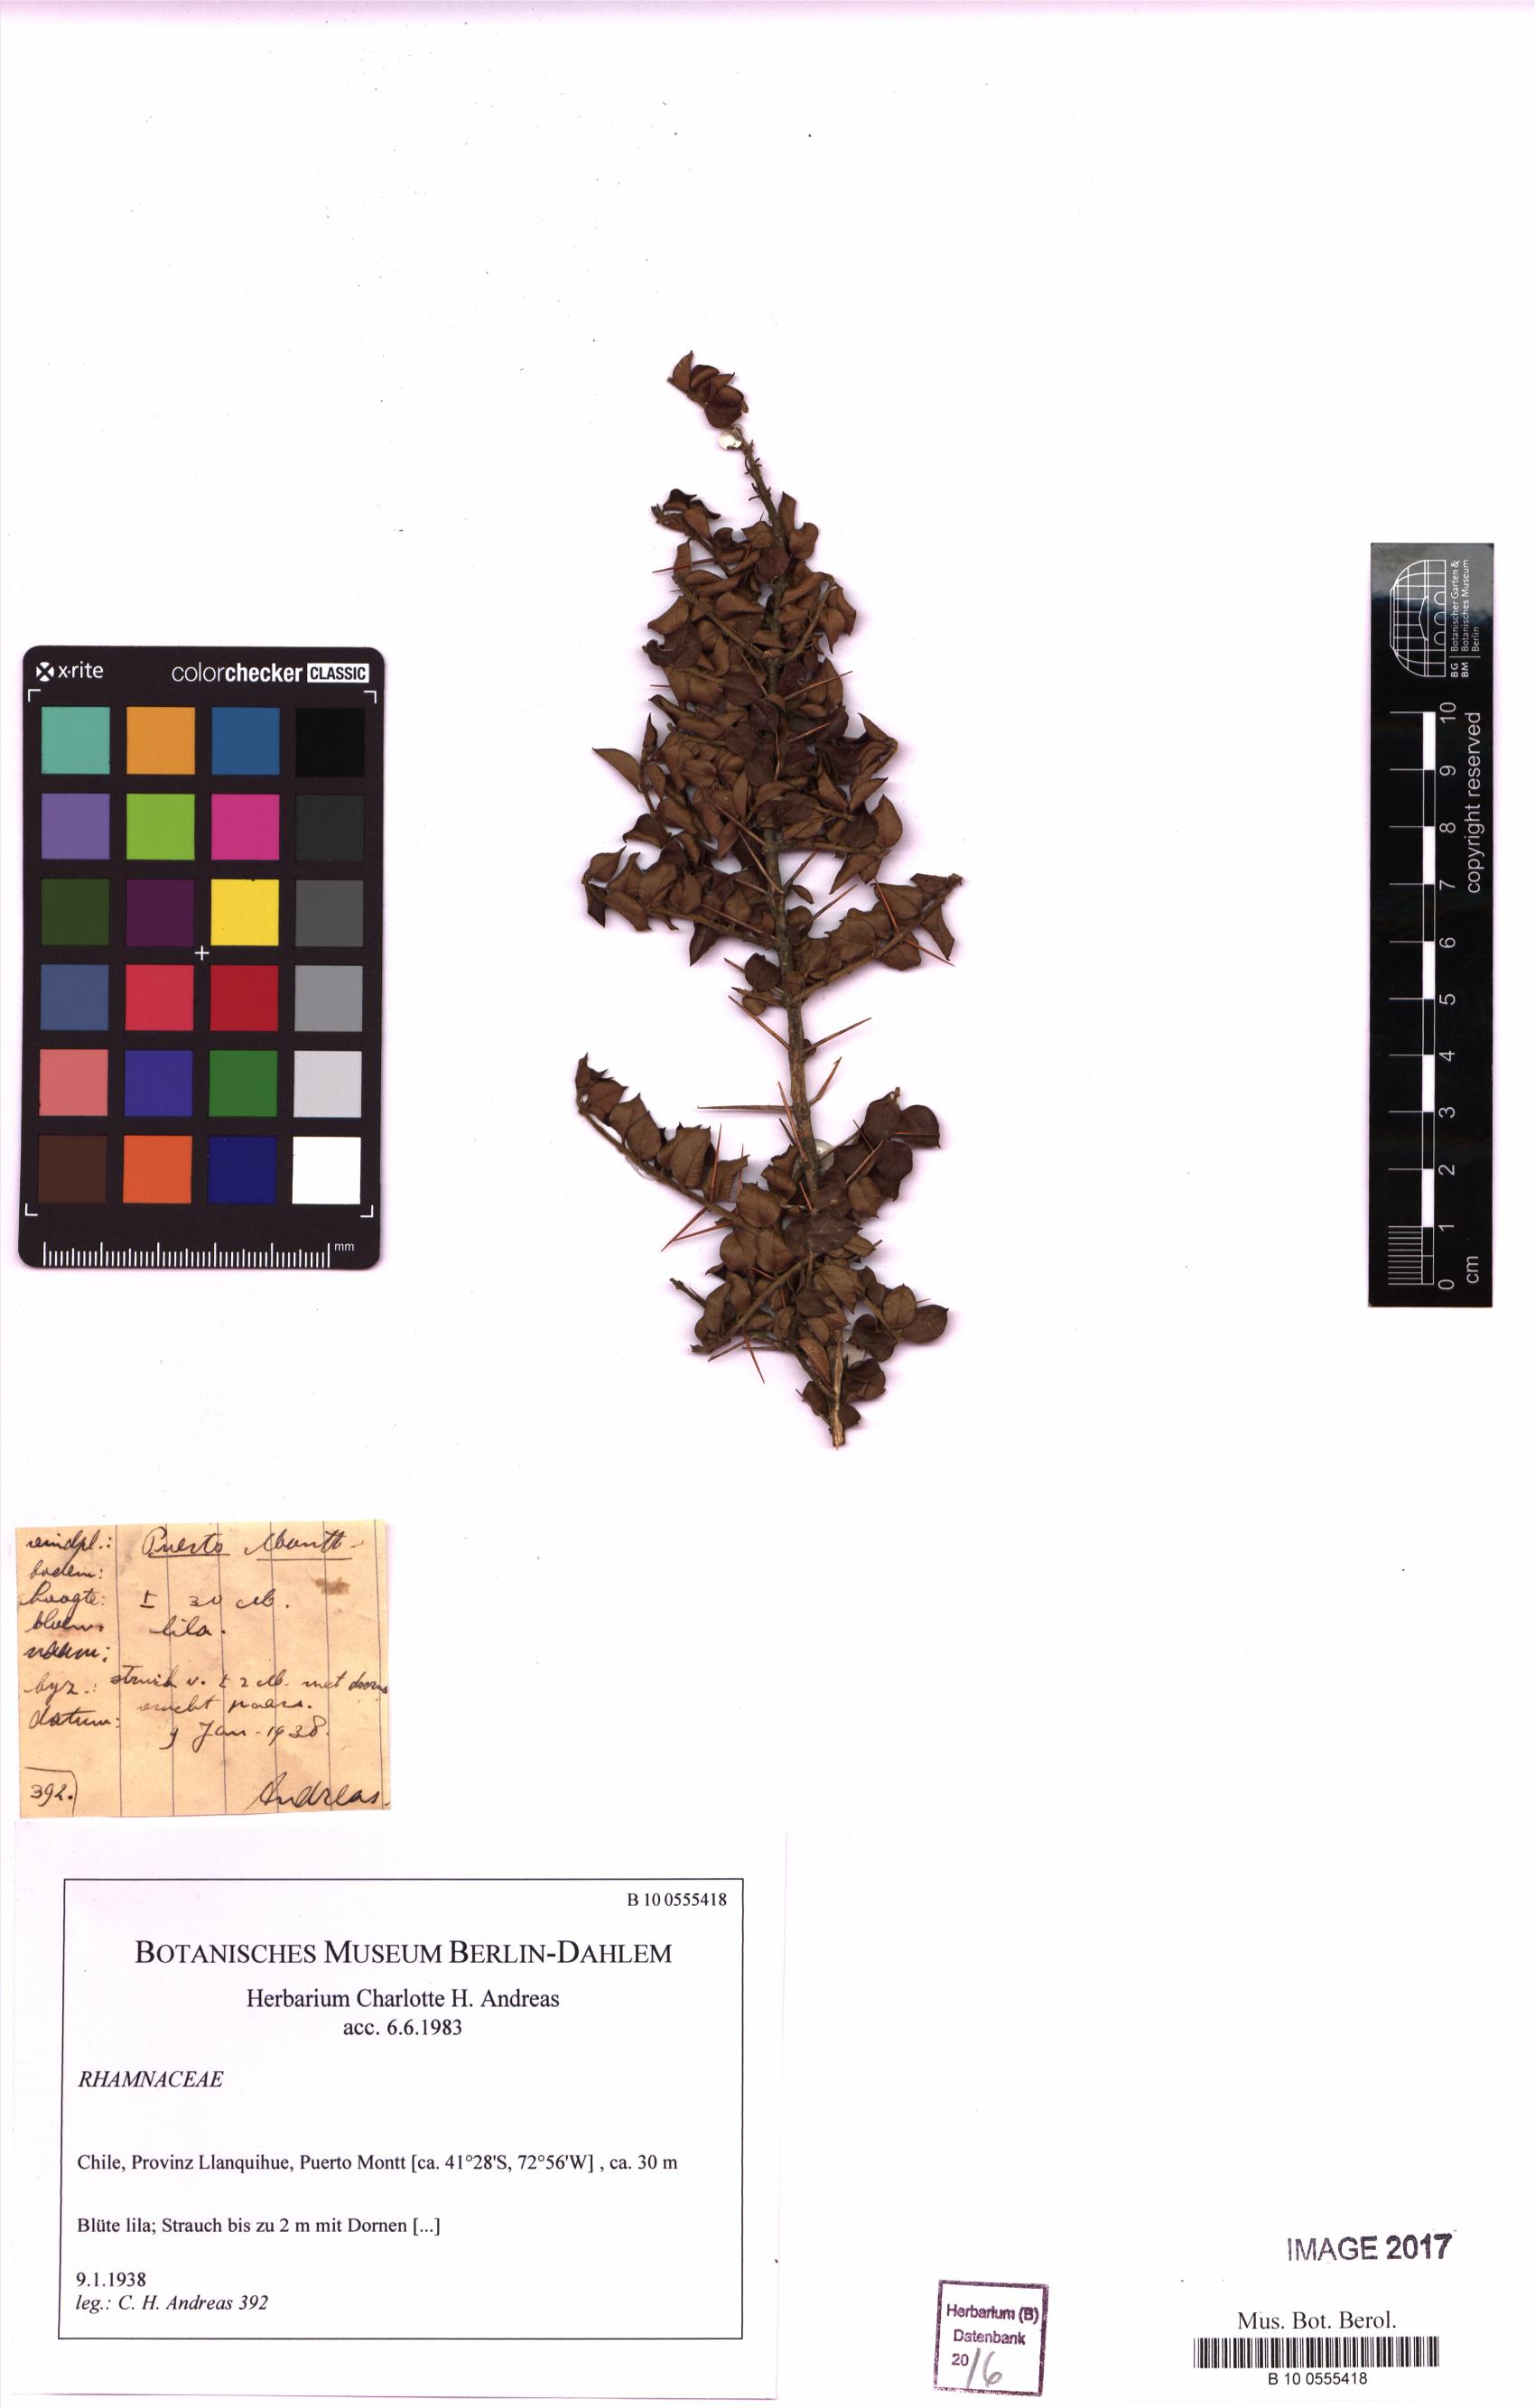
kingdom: Plantae
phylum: Tracheophyta
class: Magnoliopsida
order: Rosales
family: Rhamnaceae
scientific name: Rhamnaceae
